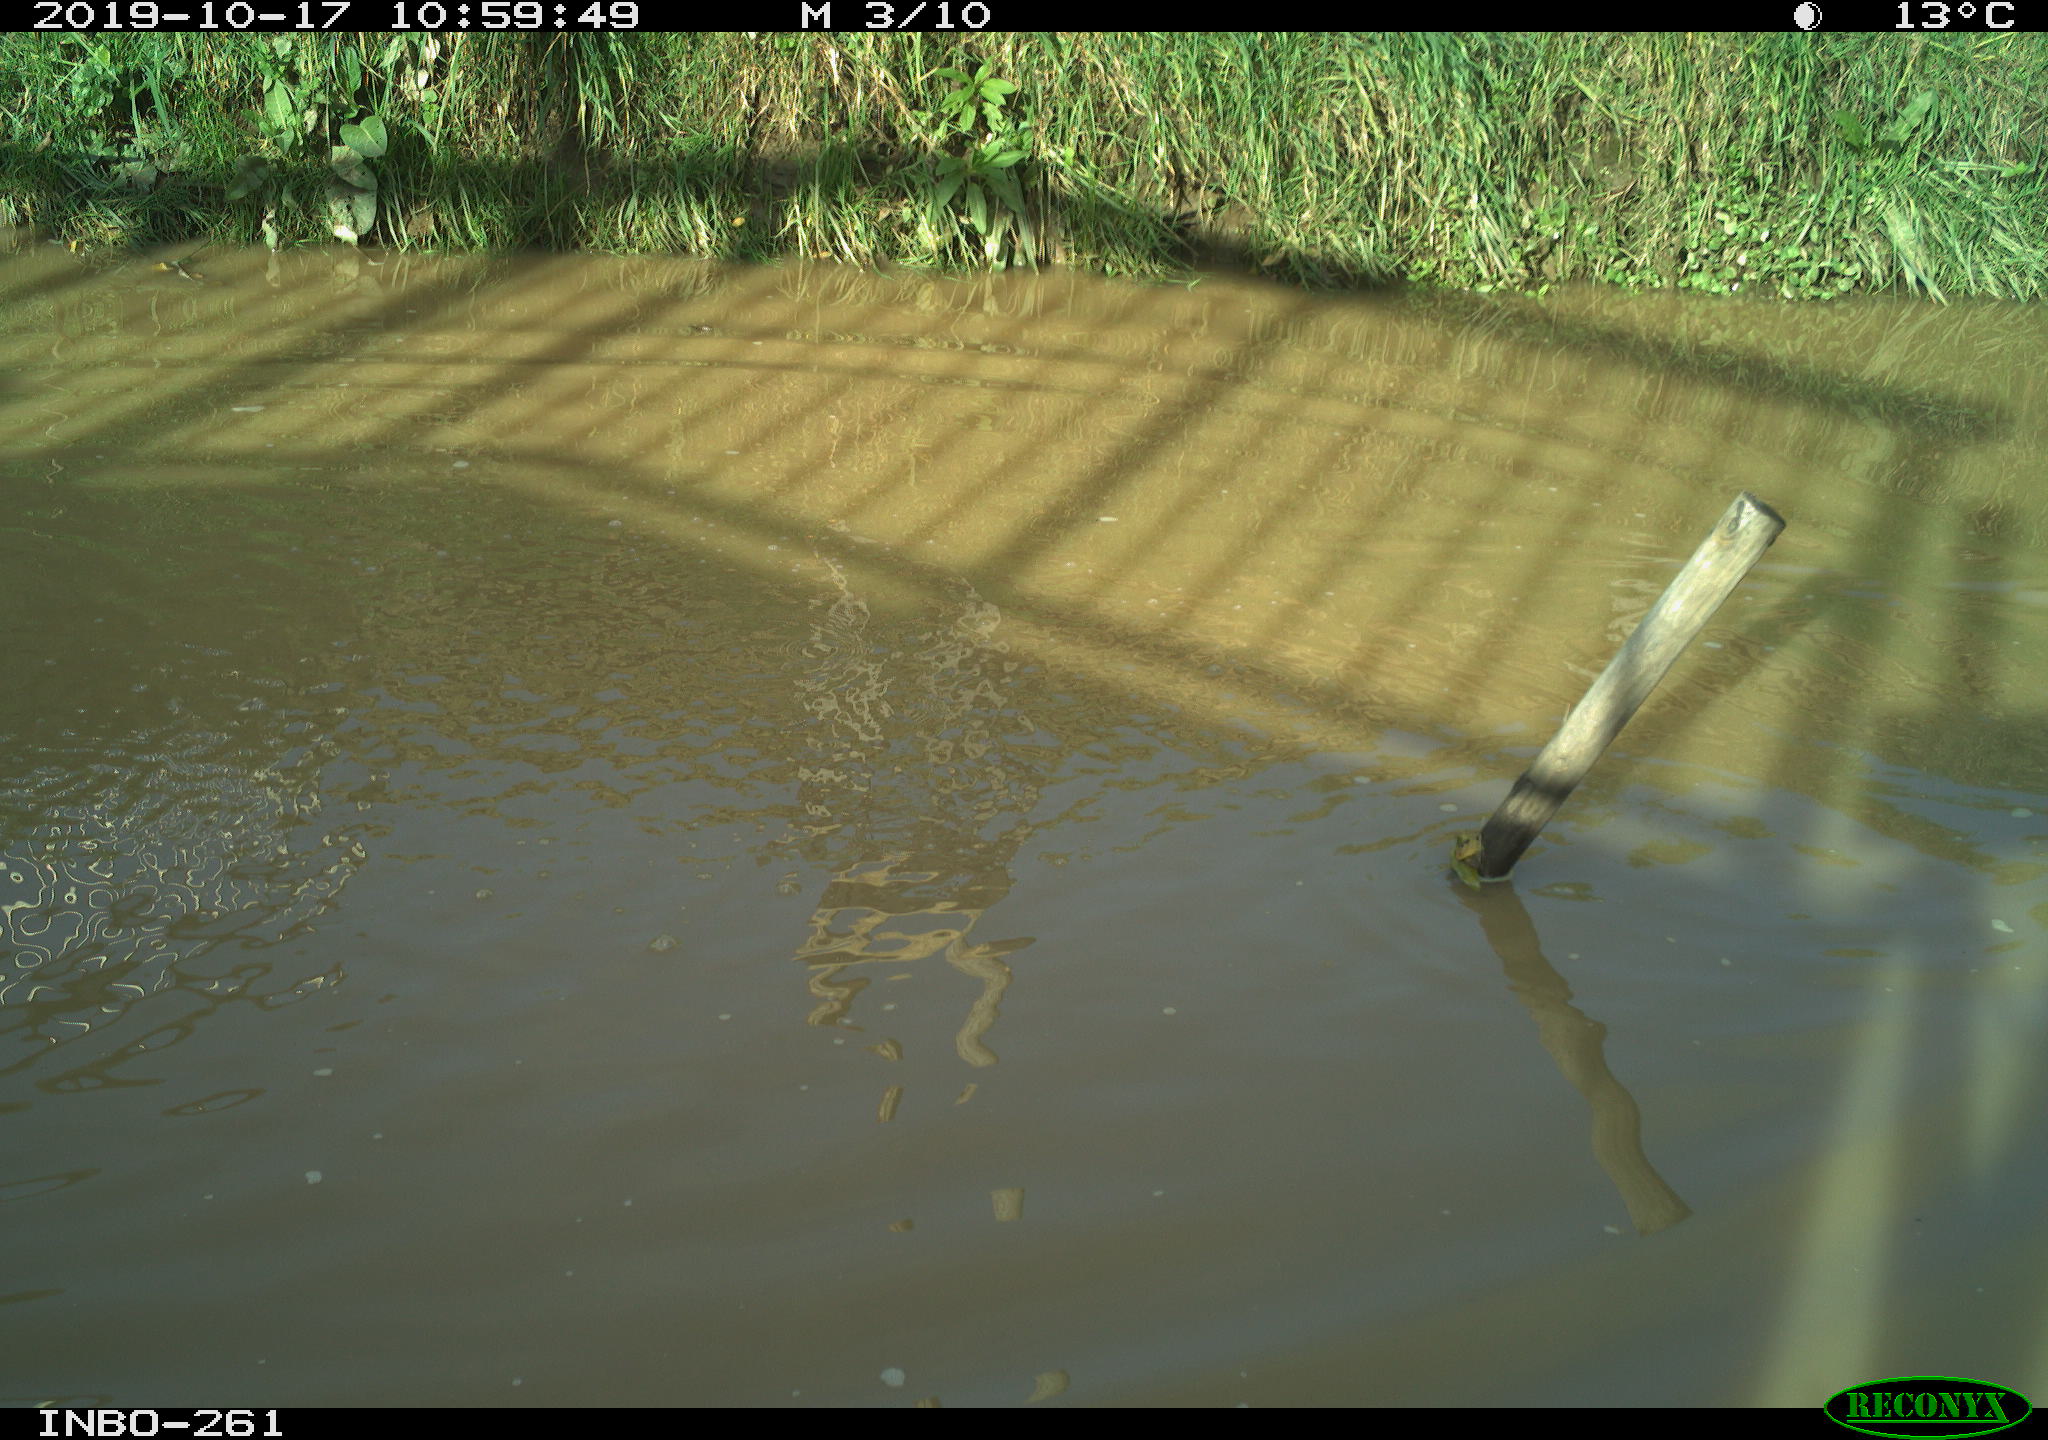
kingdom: Animalia
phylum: Chordata
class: Aves
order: Gruiformes
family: Rallidae
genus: Gallinula
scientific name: Gallinula chloropus
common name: Common moorhen
